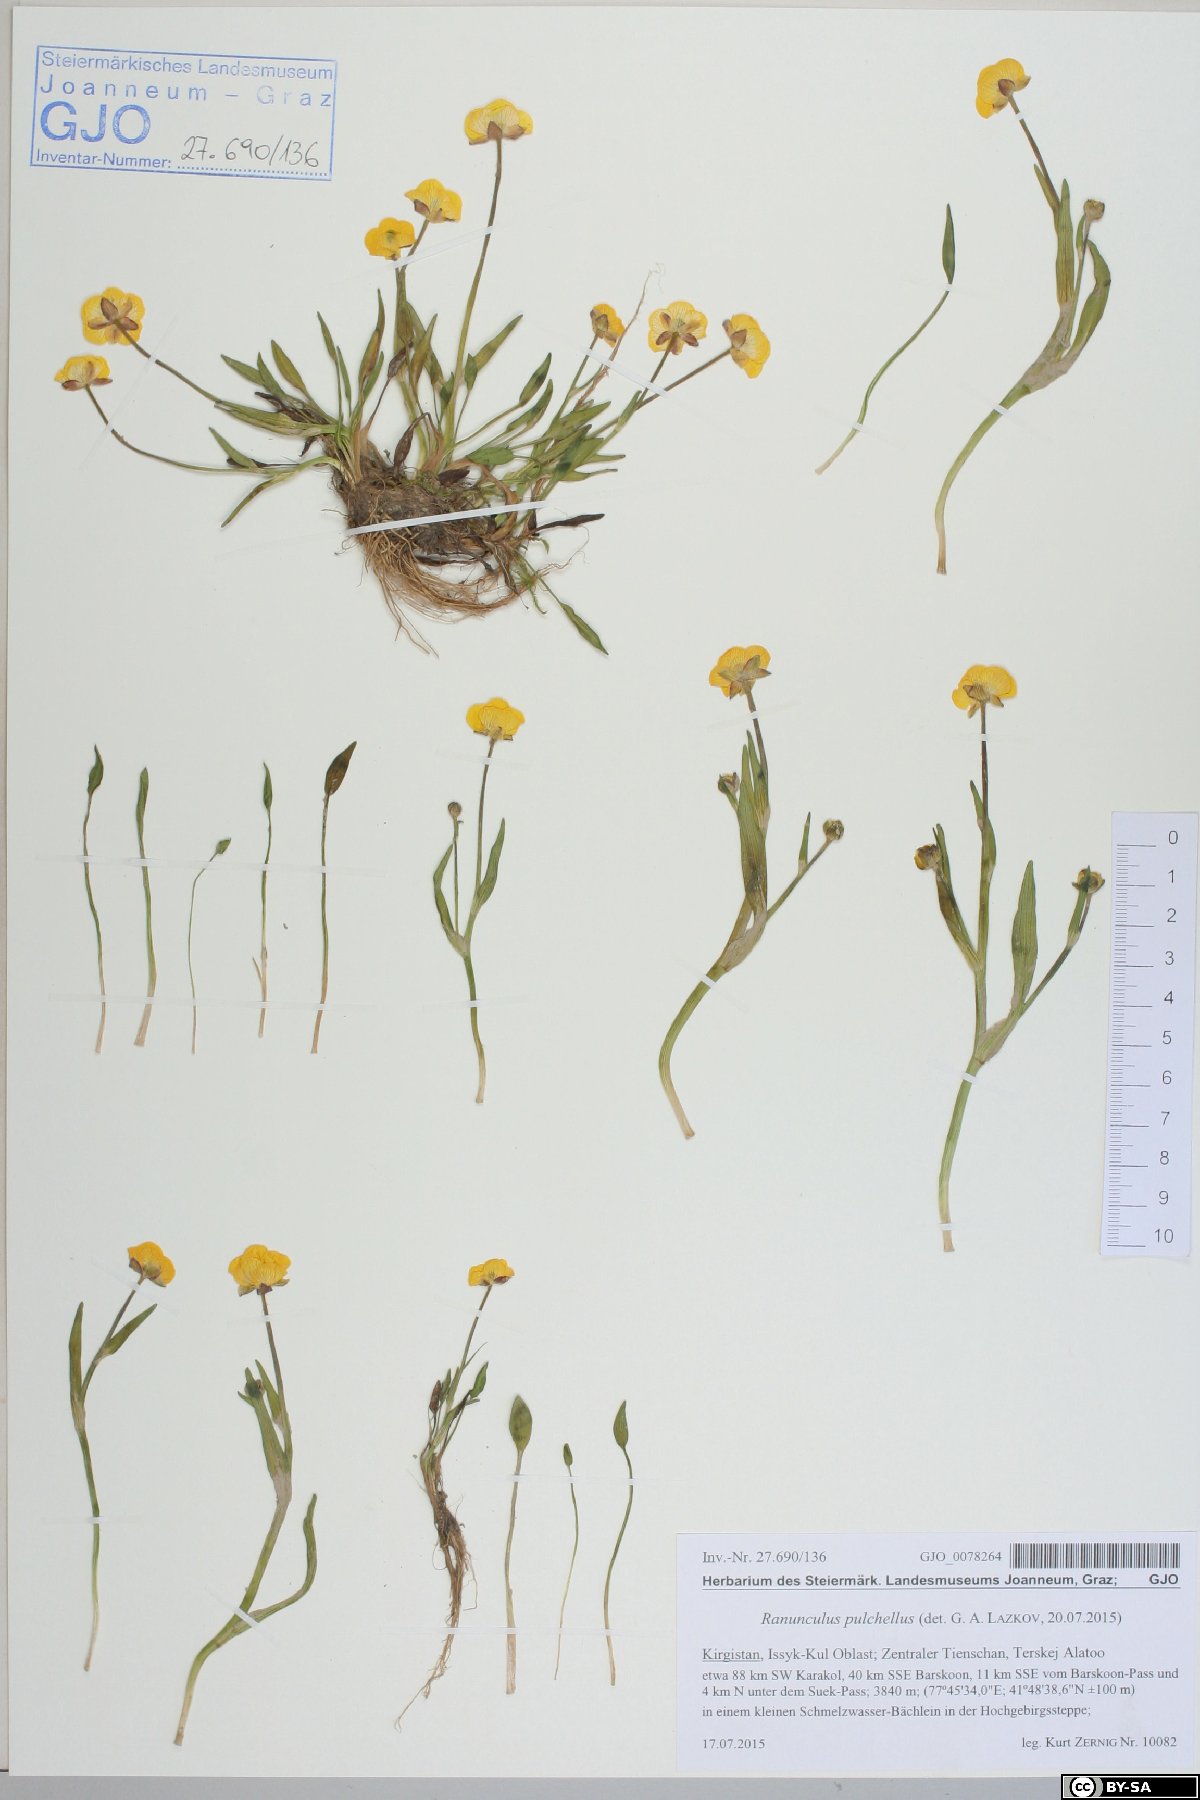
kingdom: Plantae
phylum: Tracheophyta
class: Magnoliopsida
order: Ranunculales
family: Ranunculaceae
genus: Ranunculus
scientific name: Ranunculus pulchellus
